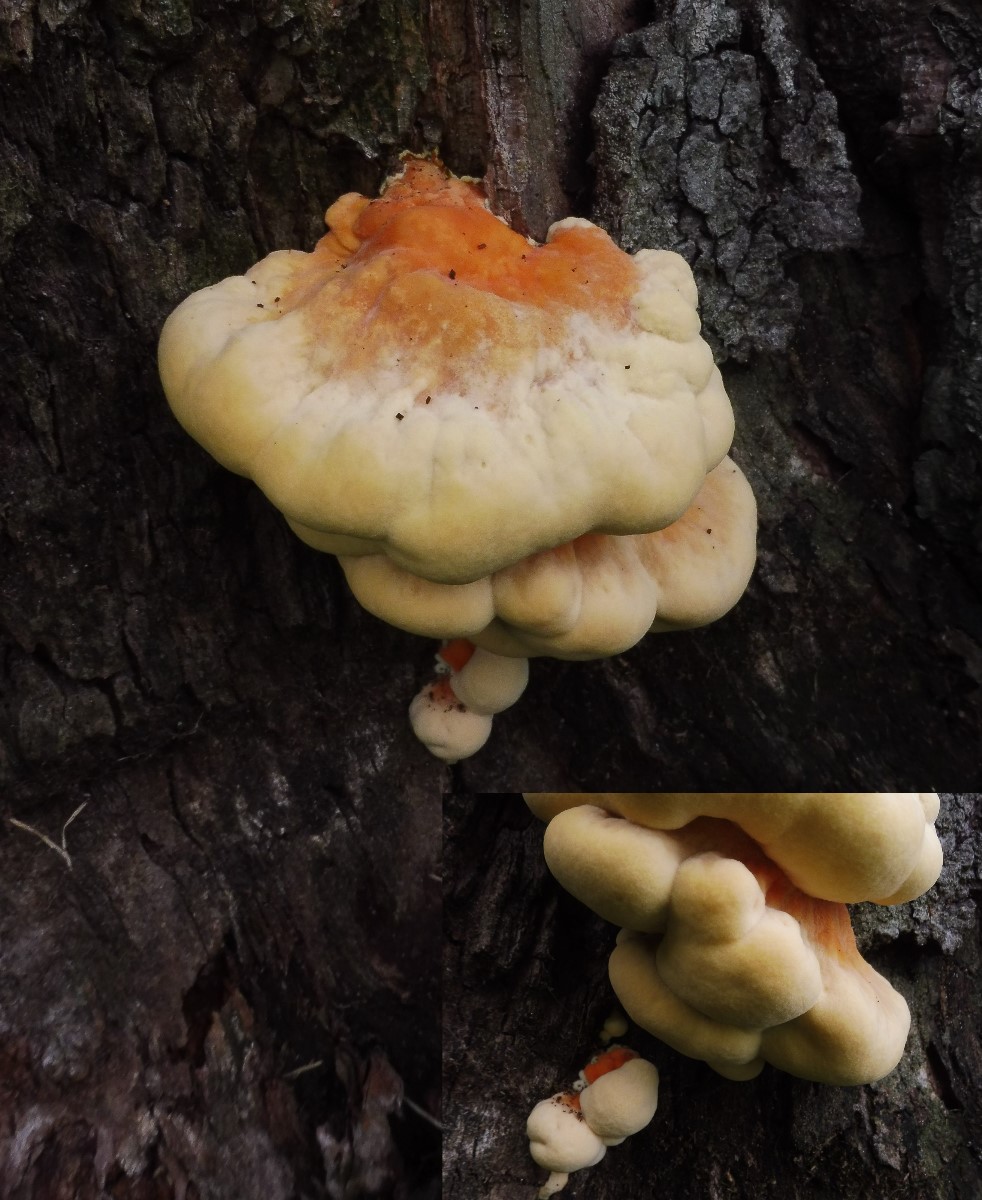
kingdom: Fungi
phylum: Basidiomycota
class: Agaricomycetes
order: Polyporales
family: Laetiporaceae
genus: Laetiporus
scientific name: Laetiporus sulphureus
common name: svovlporesvamp
